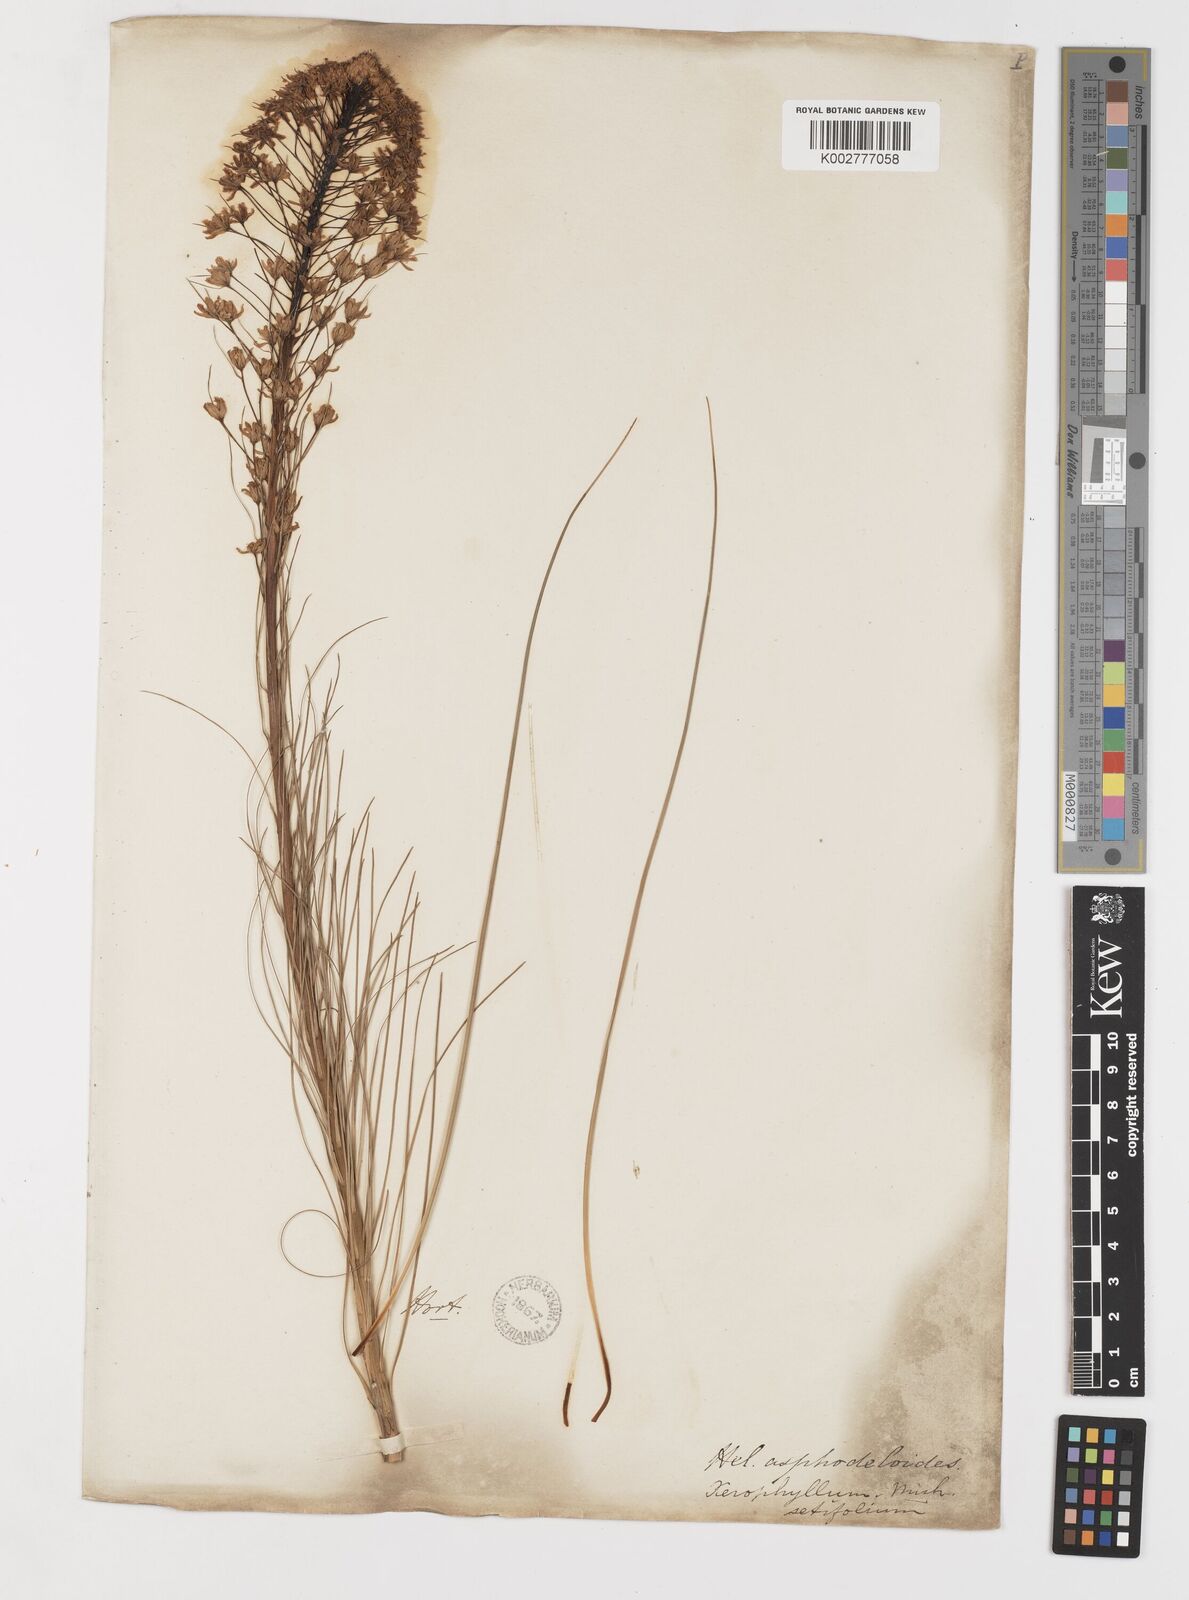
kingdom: Plantae
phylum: Tracheophyta
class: Liliopsida
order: Liliales
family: Melanthiaceae
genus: Xerophyllum
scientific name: Xerophyllum asphodeloides
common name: Mountain-asphodel
